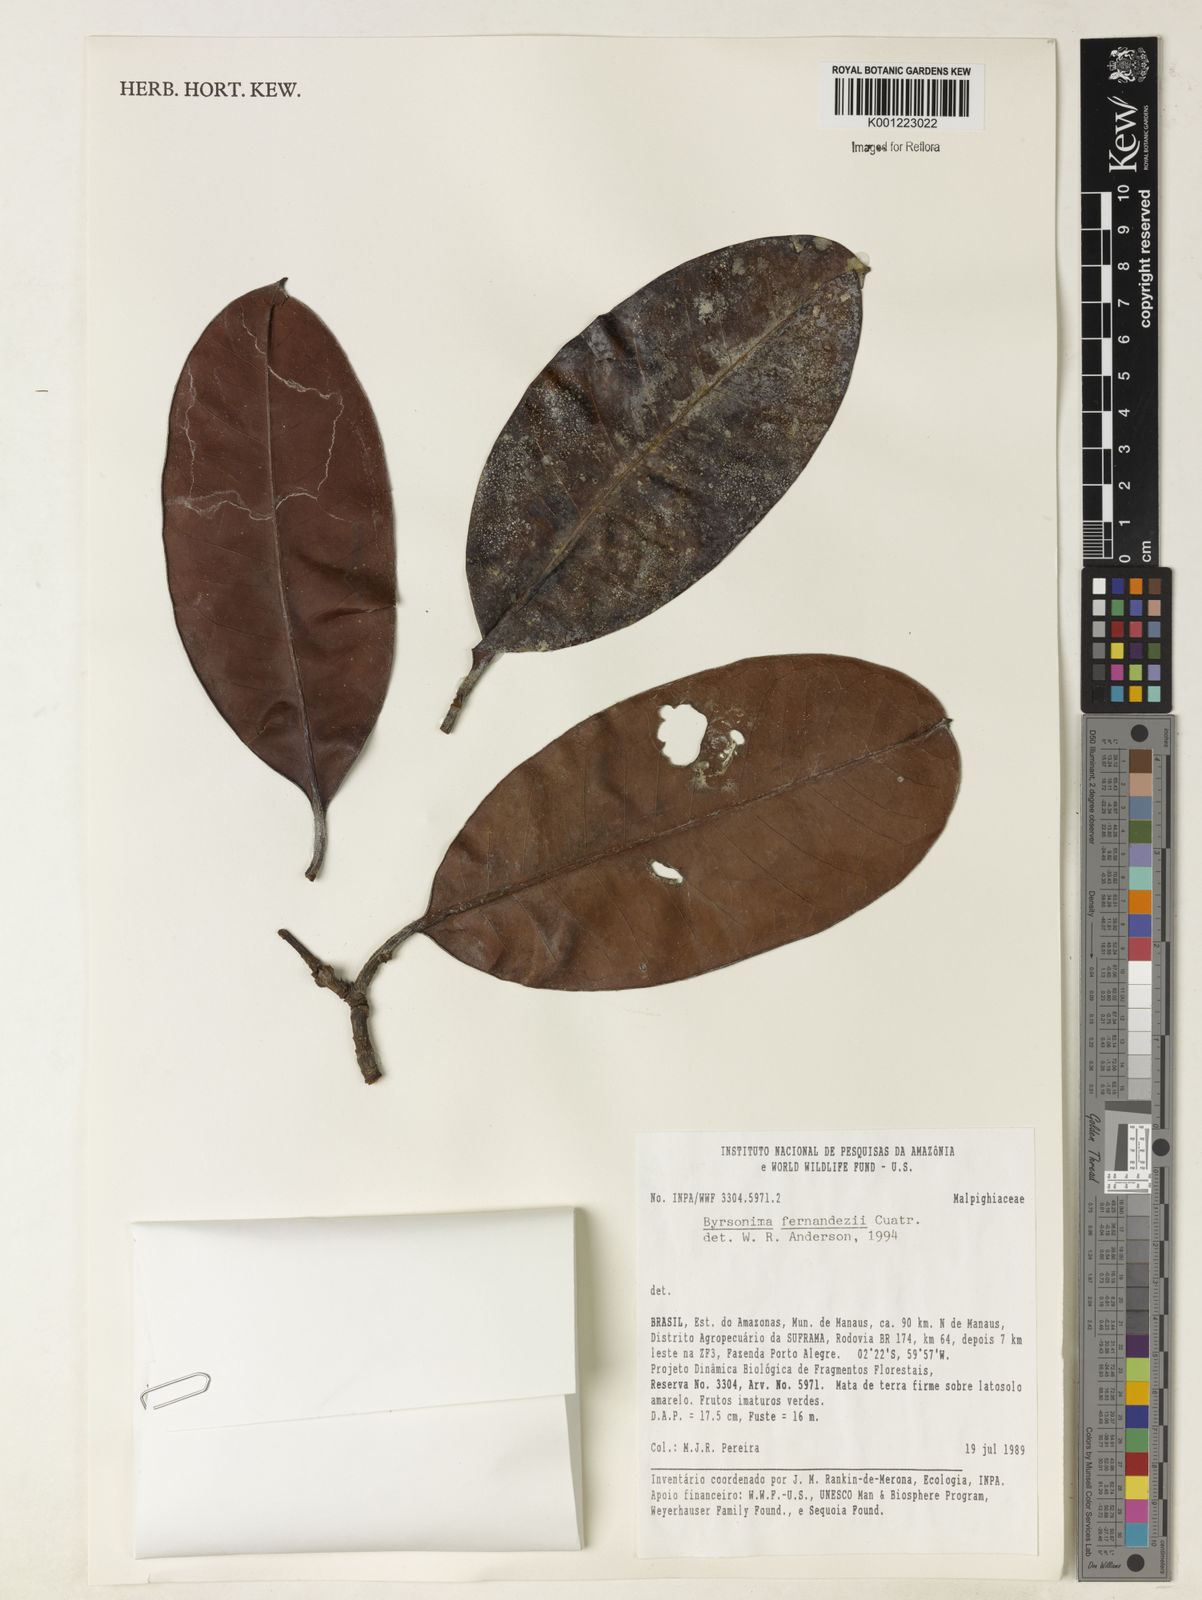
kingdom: Plantae
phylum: Tracheophyta
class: Magnoliopsida
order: Malpighiales
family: Malpighiaceae
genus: Byrsonima
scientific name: Byrsonima fernandezii
